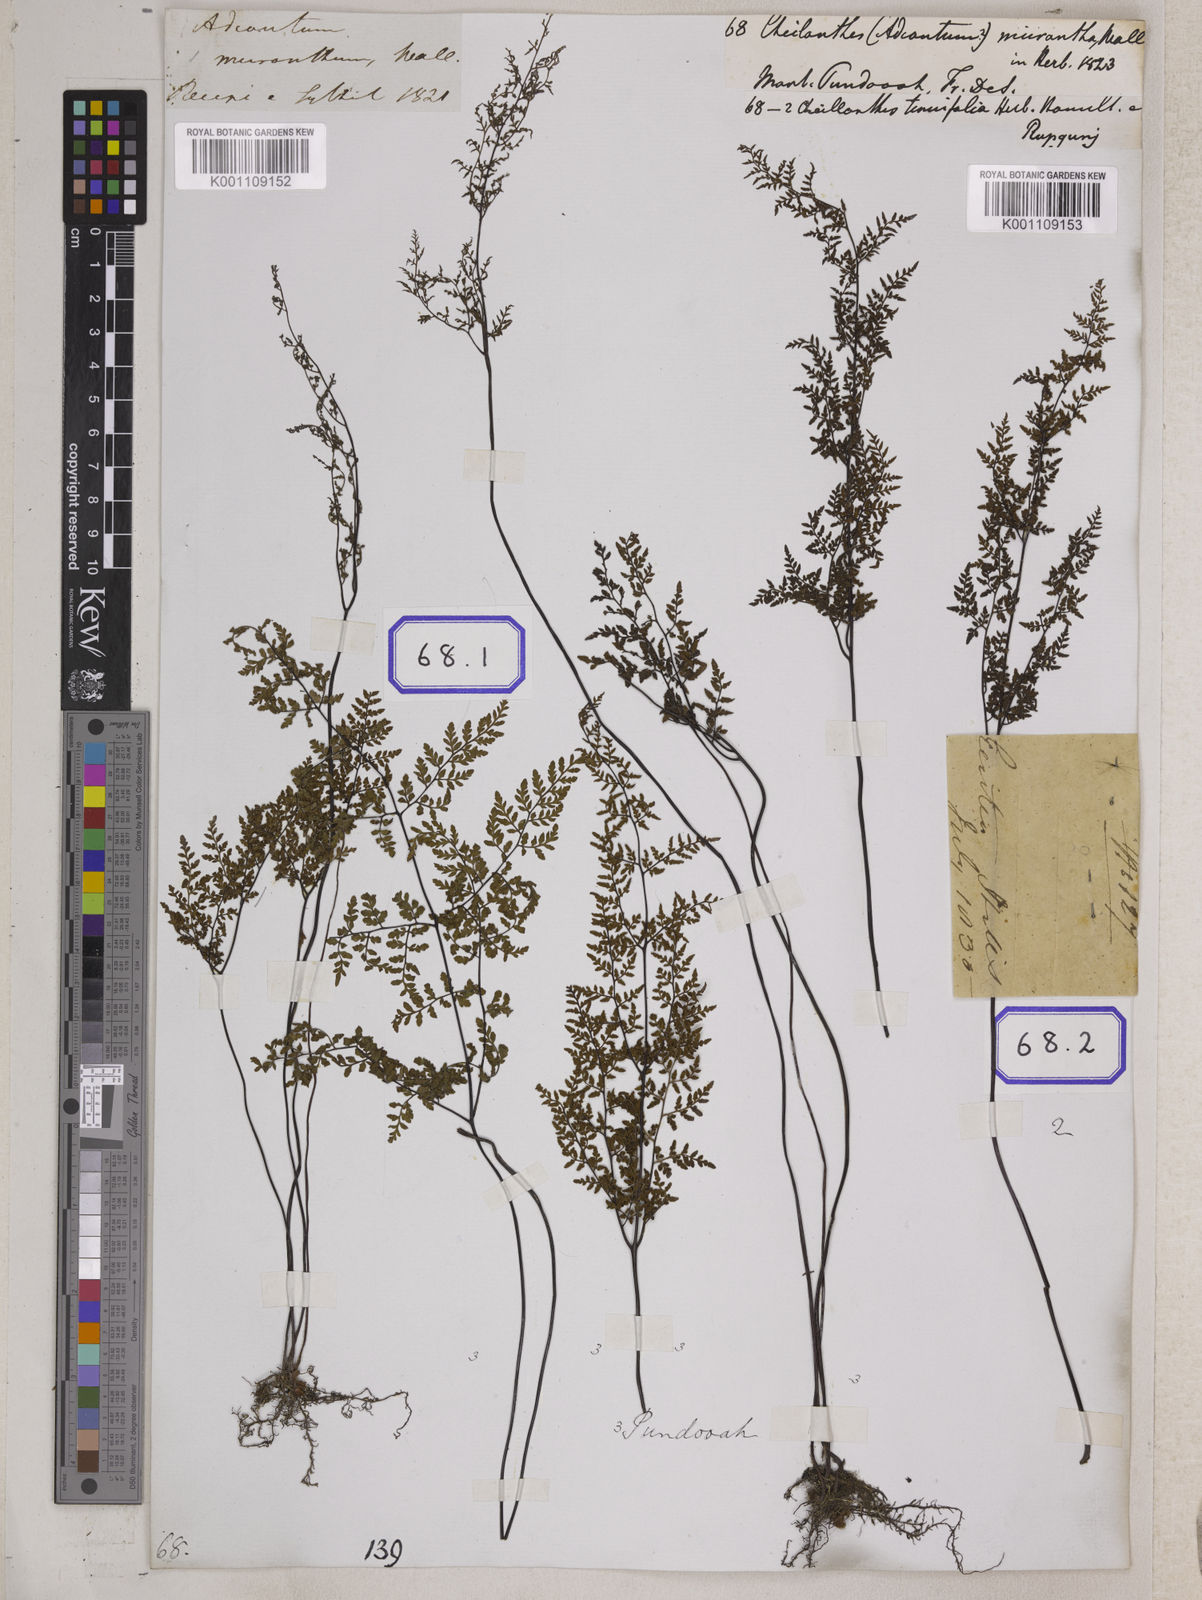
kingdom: Plantae
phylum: Tracheophyta
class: Polypodiopsida
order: Polypodiales
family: Pteridaceae
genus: Cheilanthes
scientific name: Cheilanthes tenuifolia
